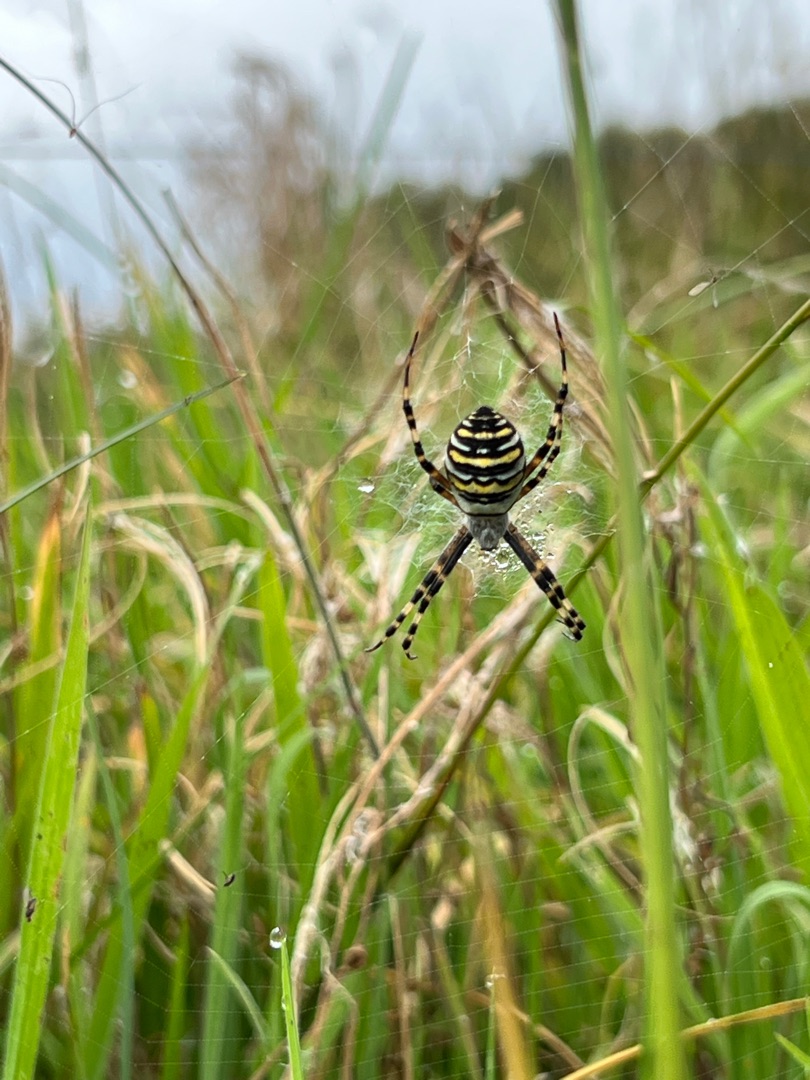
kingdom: Animalia
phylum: Arthropoda
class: Arachnida
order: Araneae
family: Araneidae
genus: Argiope
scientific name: Argiope bruennichi
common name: Hvepseedderkop
